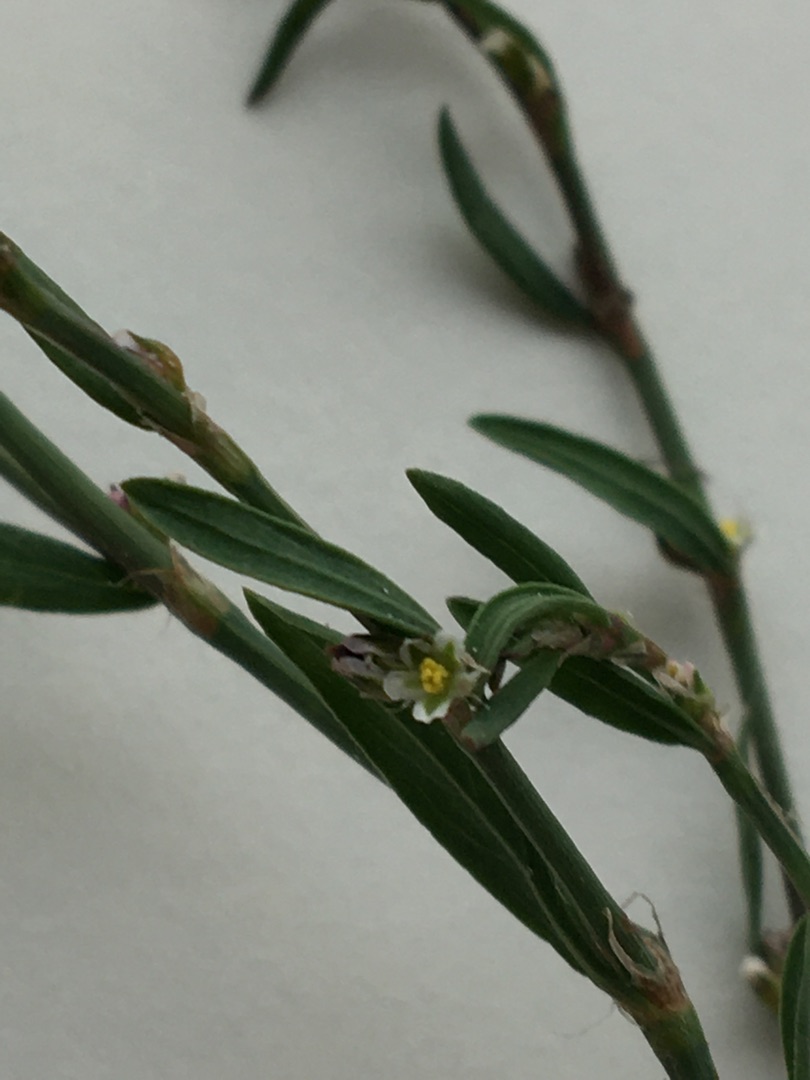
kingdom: Plantae
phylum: Tracheophyta
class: Magnoliopsida
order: Caryophyllales
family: Polygonaceae
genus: Polygonum
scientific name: Polygonum aviculare
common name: Vej-pileurt
